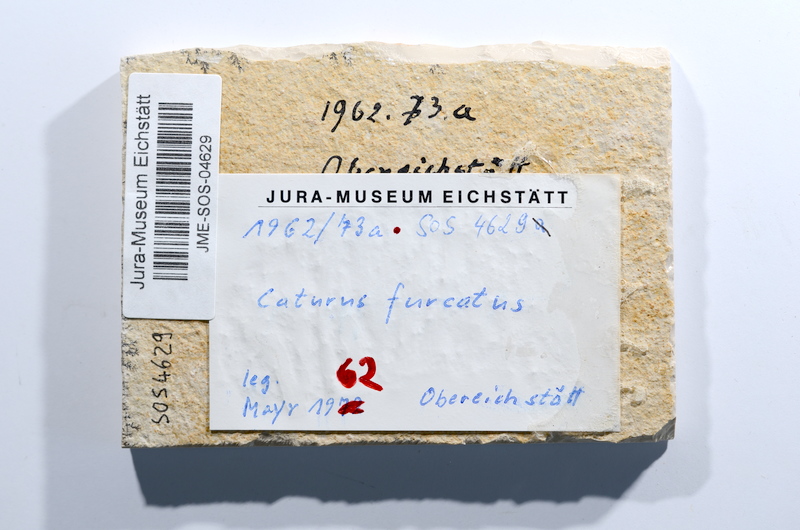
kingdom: Animalia
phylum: Chordata
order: Amiiformes
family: Caturidae
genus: Caturus
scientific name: Caturus furcatus
